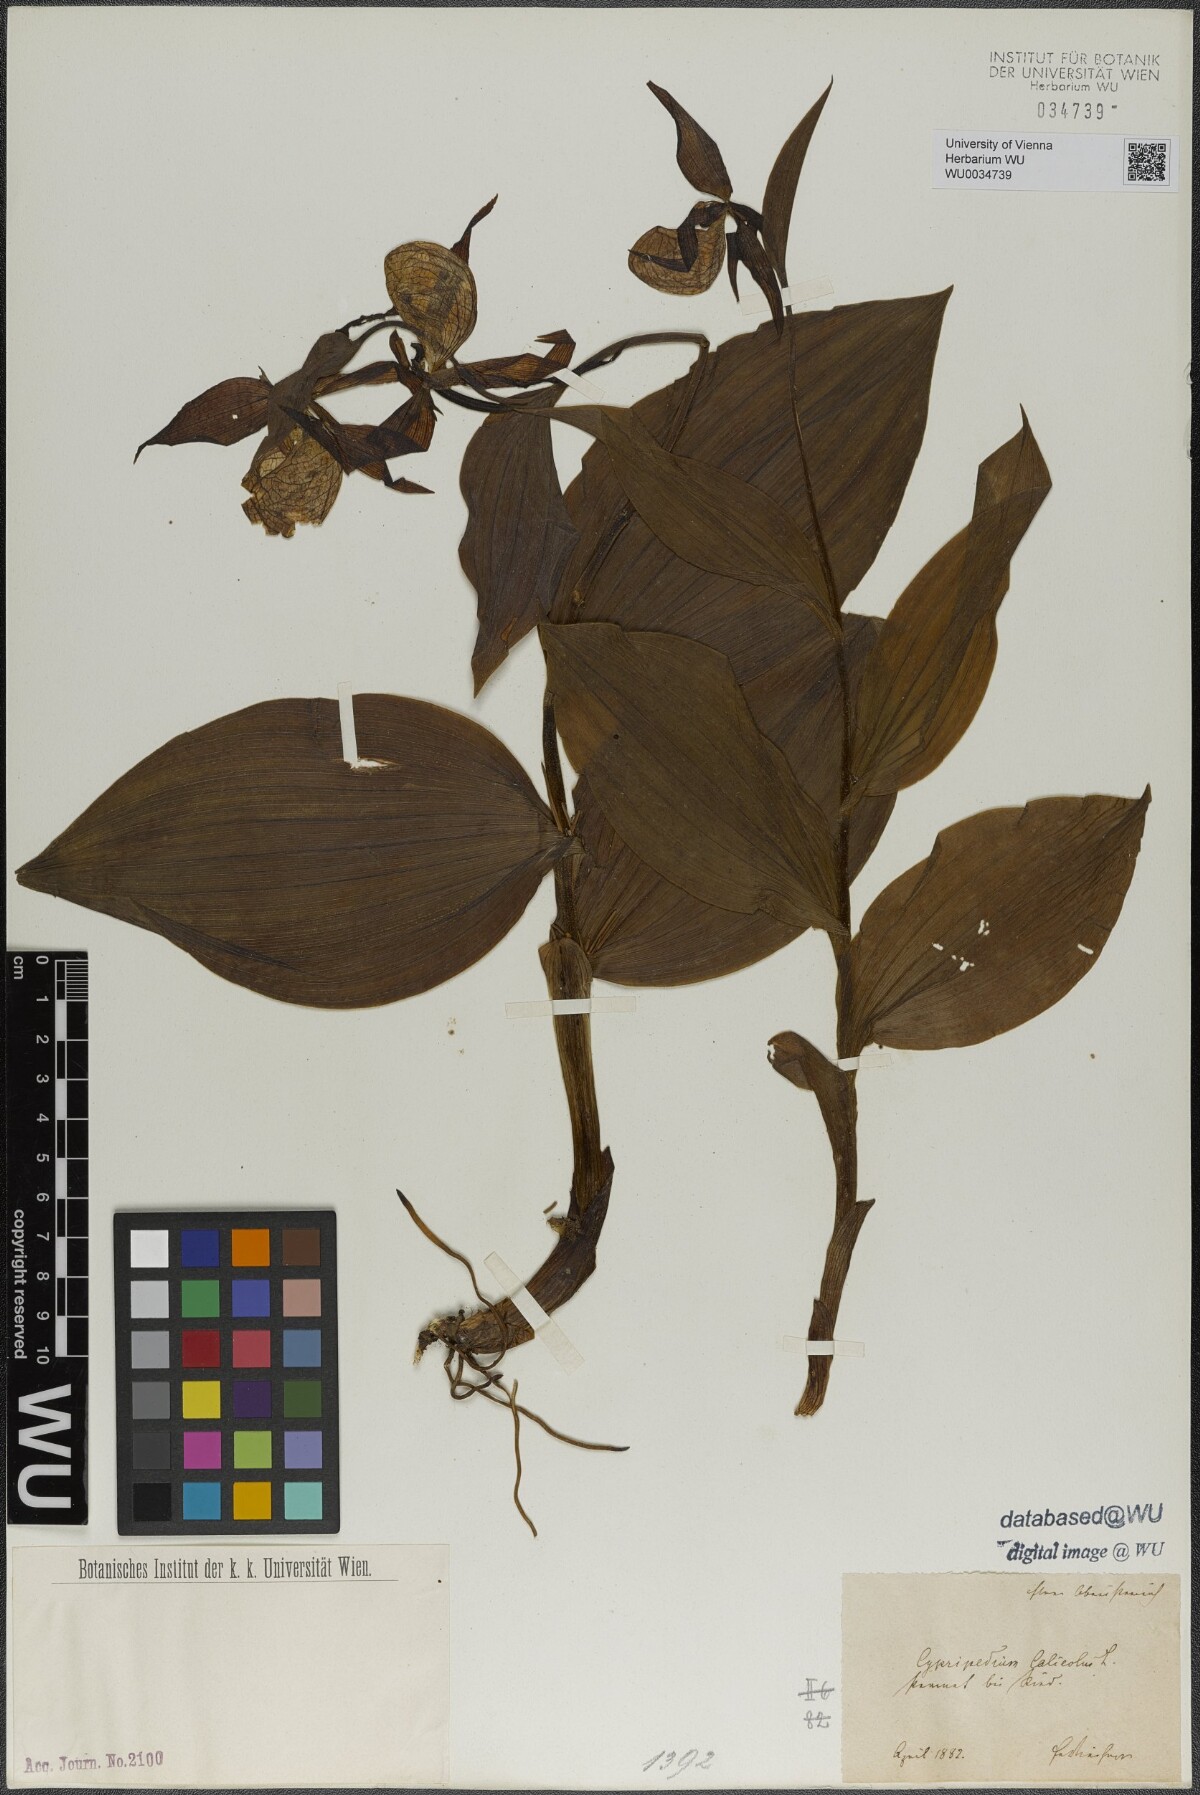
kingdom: Plantae
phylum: Tracheophyta
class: Liliopsida
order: Asparagales
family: Orchidaceae
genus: Cypripedium
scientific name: Cypripedium calceolus
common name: Lady's-slipper
